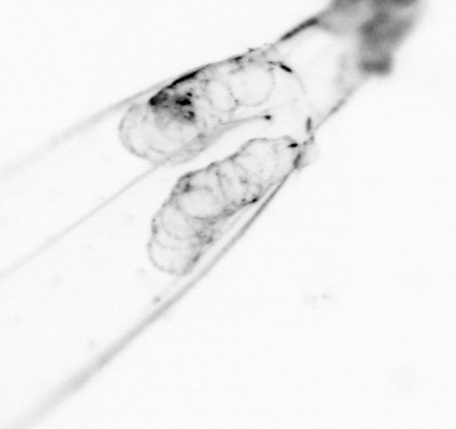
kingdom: Animalia
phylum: Chaetognatha
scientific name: Chaetognatha
